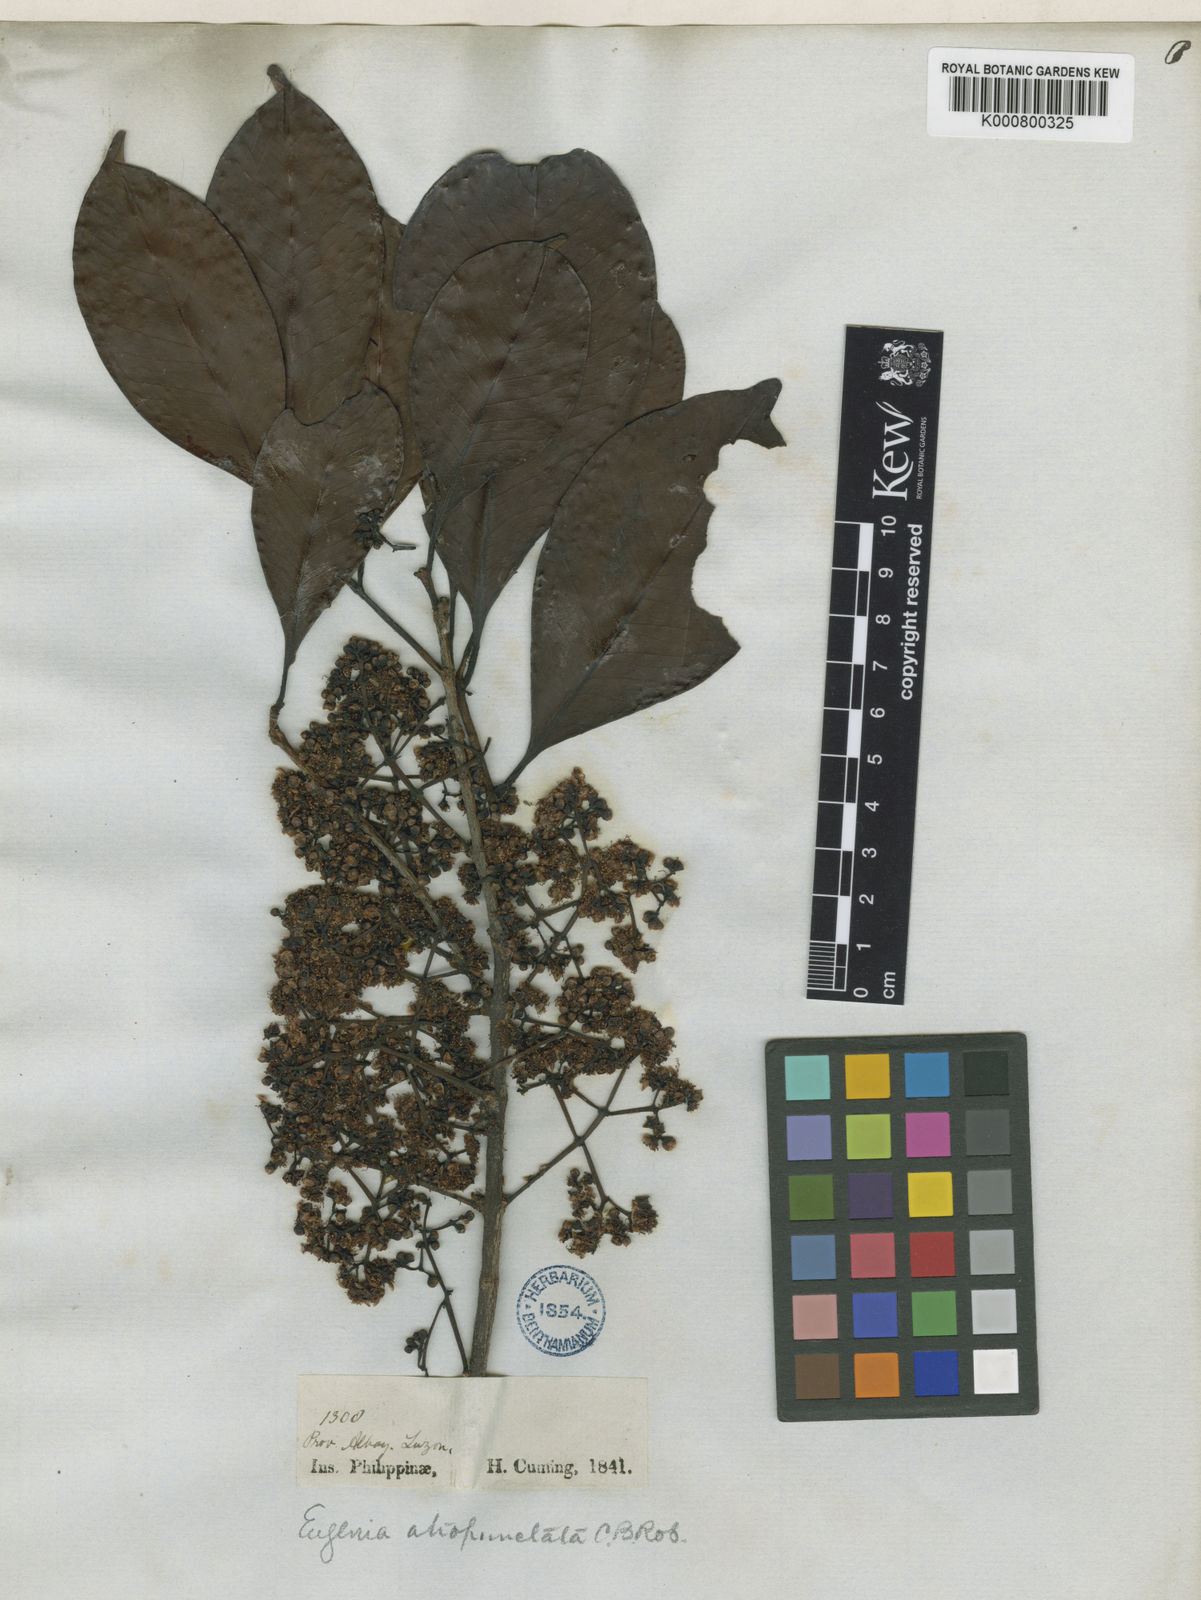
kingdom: Plantae
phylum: Tracheophyta
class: Magnoliopsida
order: Myrtales
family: Myrtaceae
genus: Syzygium
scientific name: Syzygium polyanthum
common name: Indonesian bayleaf
